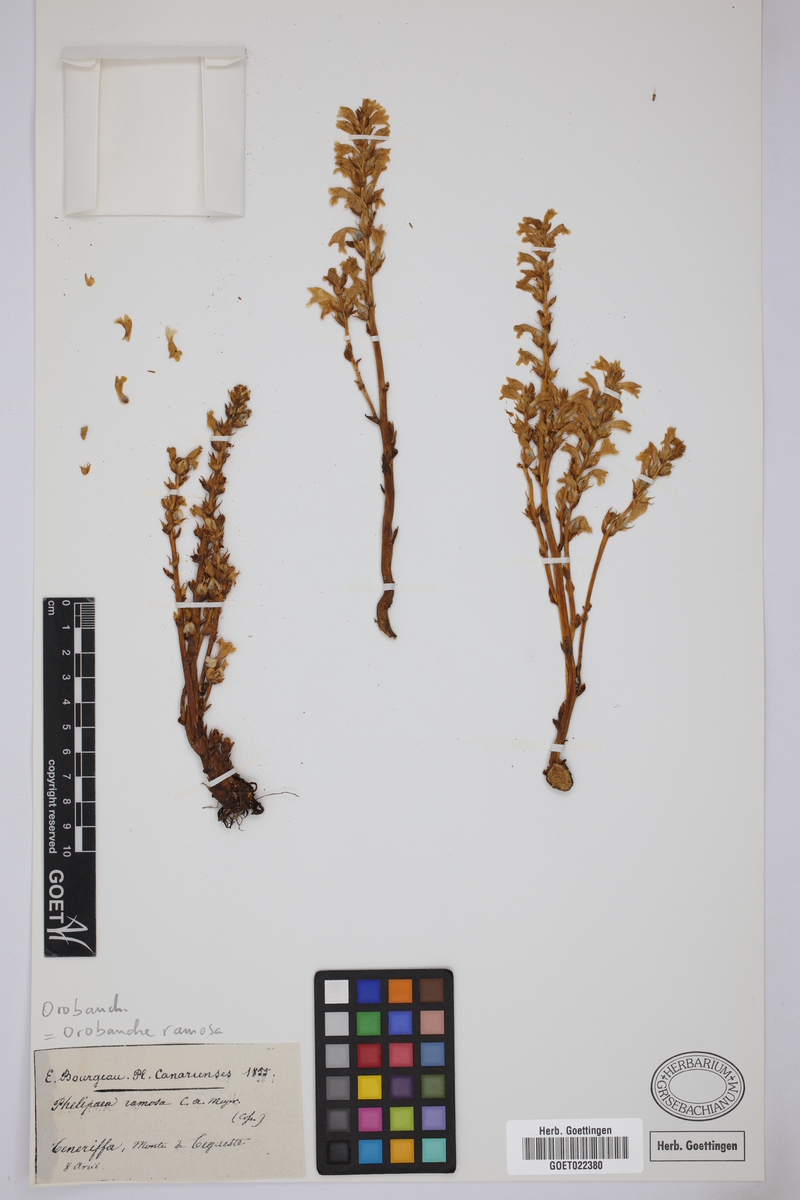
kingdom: Plantae
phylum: Tracheophyta
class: Magnoliopsida
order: Lamiales
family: Orobanchaceae
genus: Phelipanche
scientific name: Phelipanche mutelii
